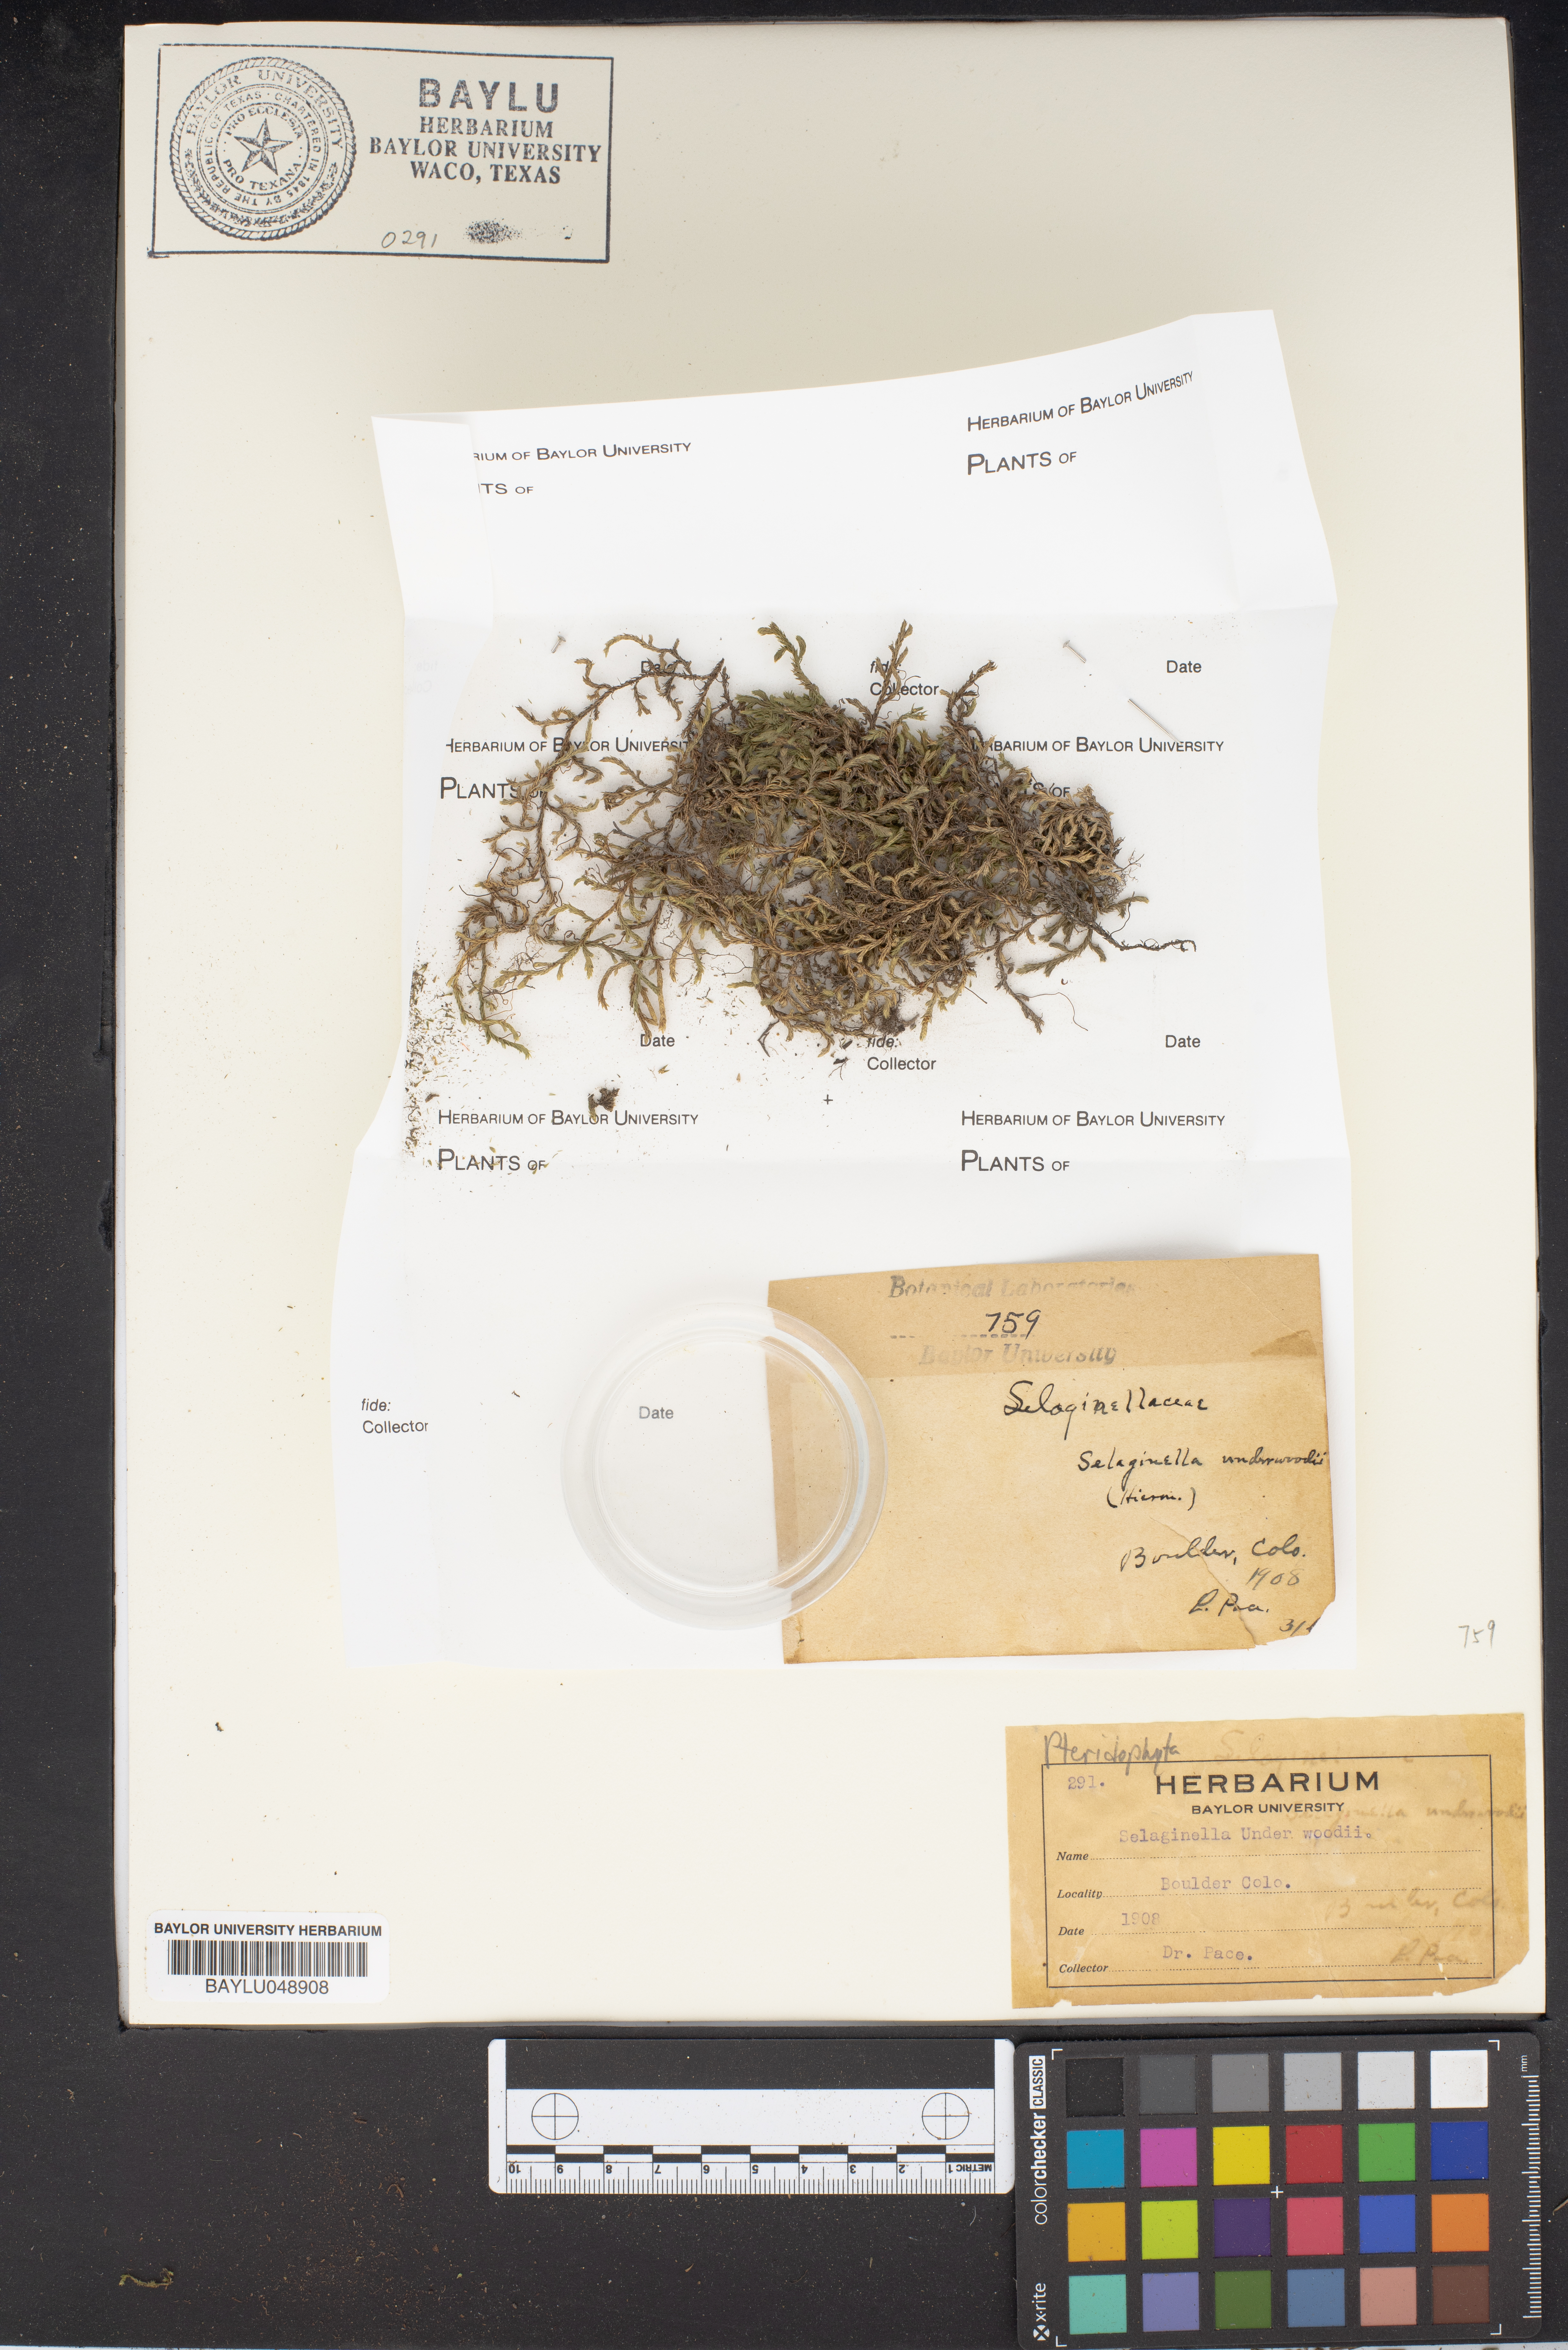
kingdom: Plantae
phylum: Tracheophyta
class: Lycopodiopsida
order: Selaginellales
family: Selaginellaceae
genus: Selaginella
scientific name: Selaginella underwoodii
